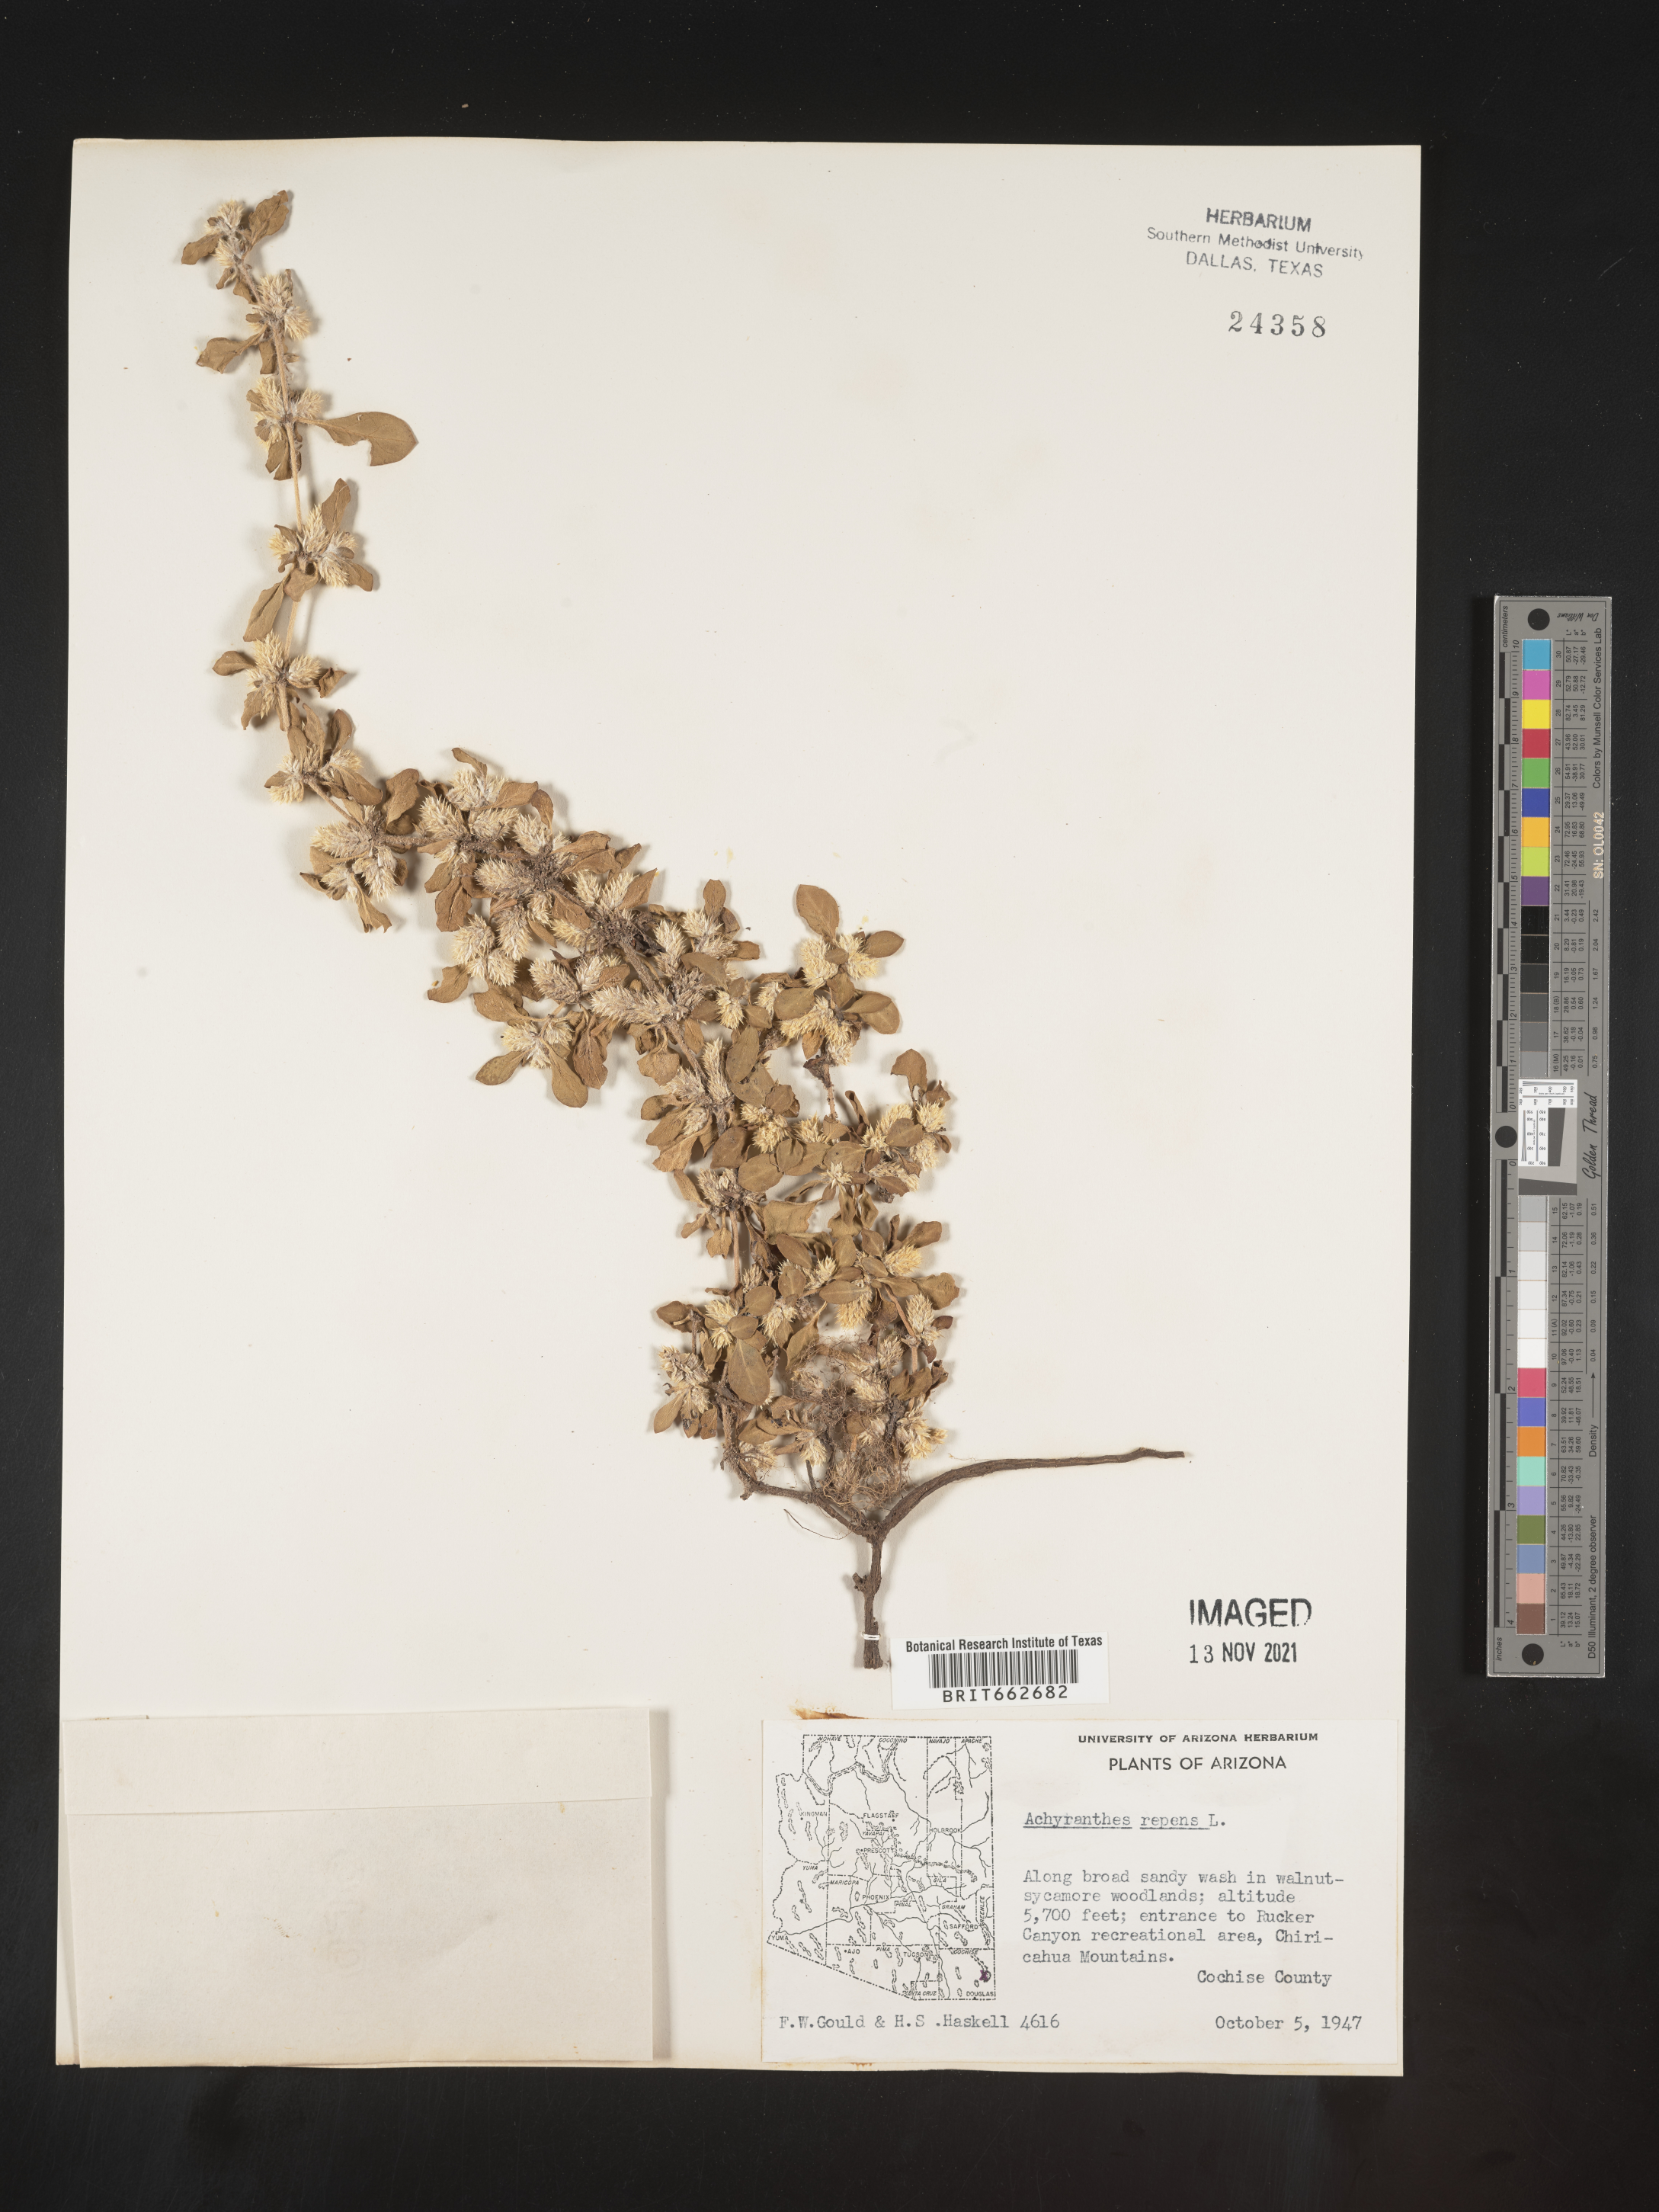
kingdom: Plantae
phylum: Tracheophyta
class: Magnoliopsida
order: Caryophyllales
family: Amaranthaceae
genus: Alternanthera
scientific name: Alternanthera pungens
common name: Khakiweed
